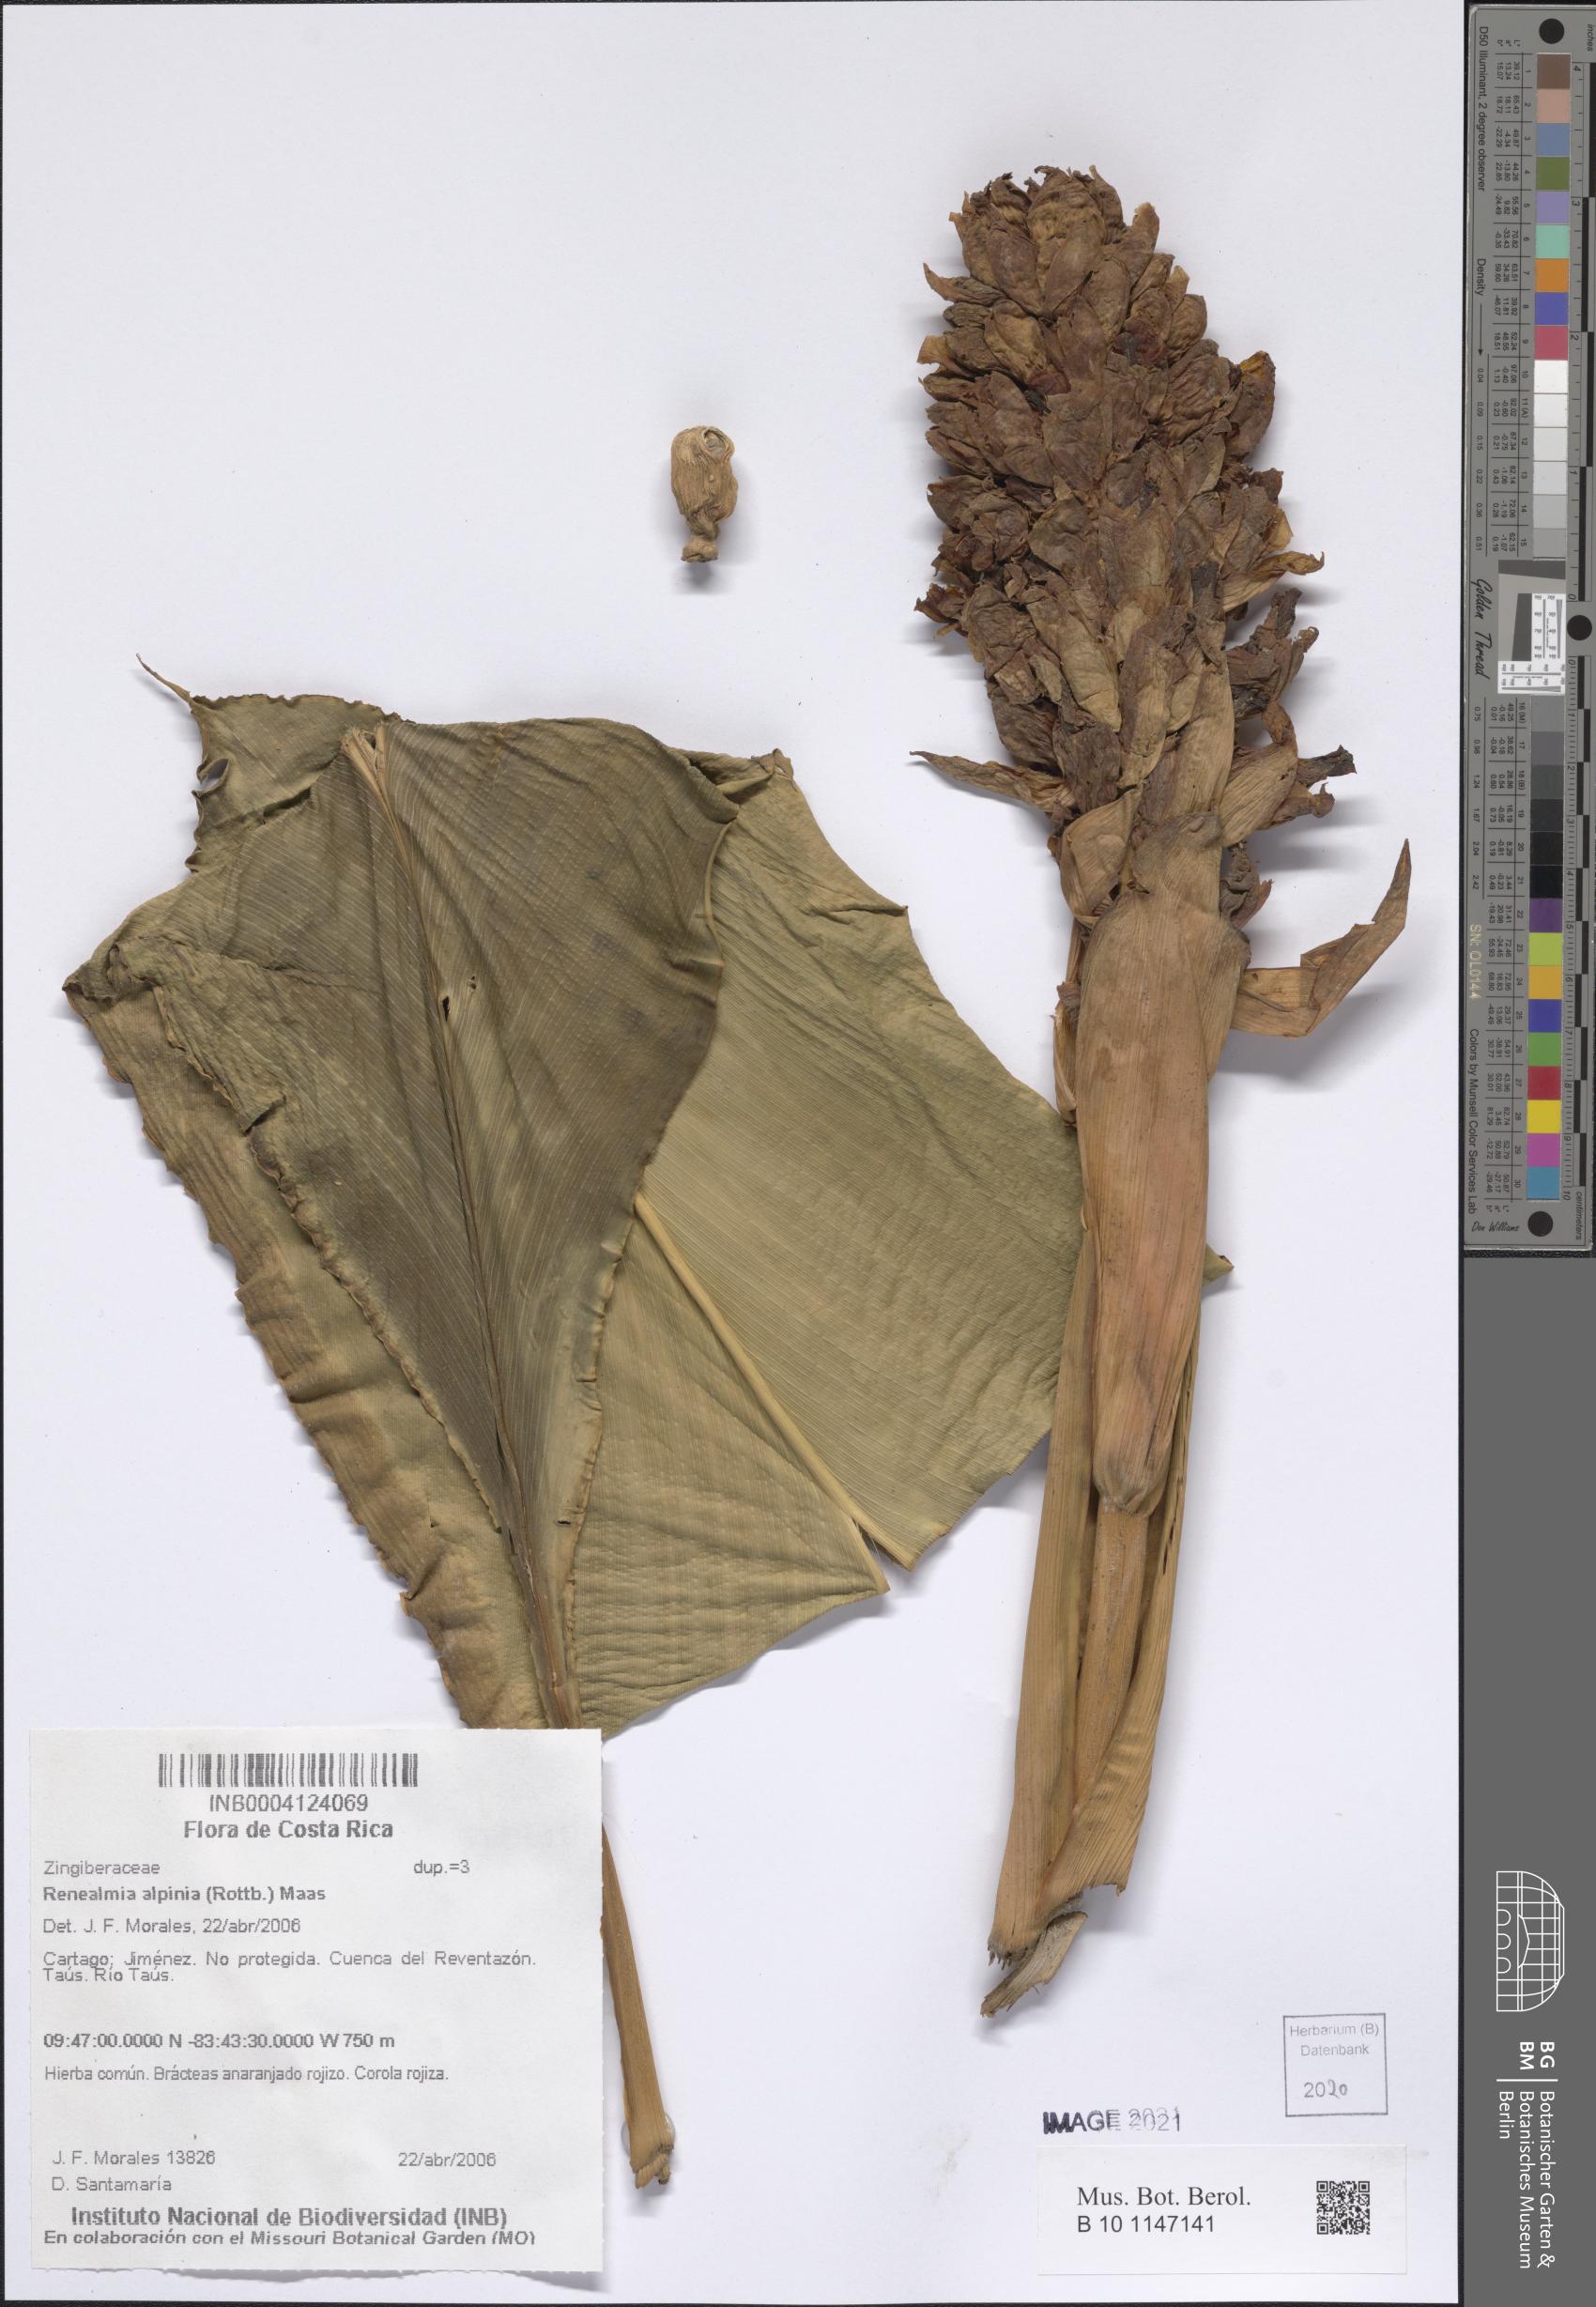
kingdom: Plantae
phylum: Tracheophyta
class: Liliopsida
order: Zingiberales
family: Zingiberaceae
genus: Renealmia
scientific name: Renealmia alpinia
